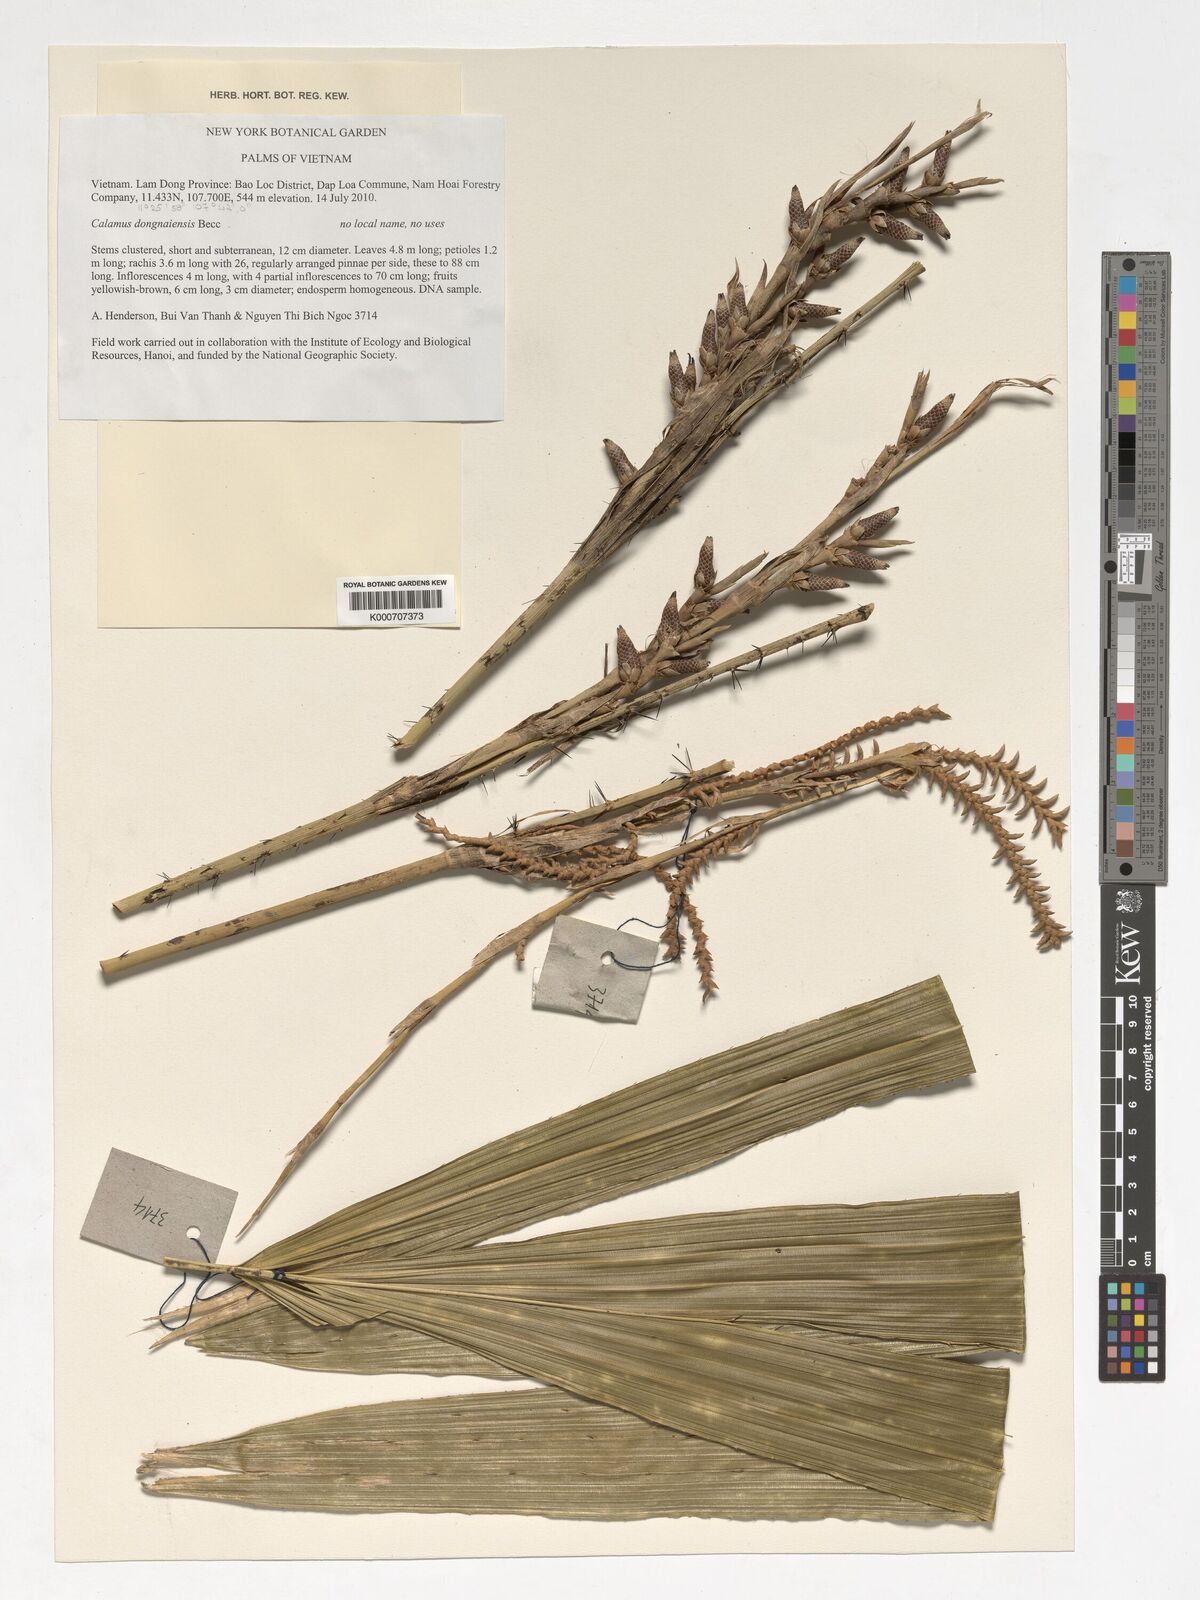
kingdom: Plantae
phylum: Tracheophyta
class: Liliopsida
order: Arecales
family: Arecaceae
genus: Calamus
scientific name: Calamus dongnaiensis
